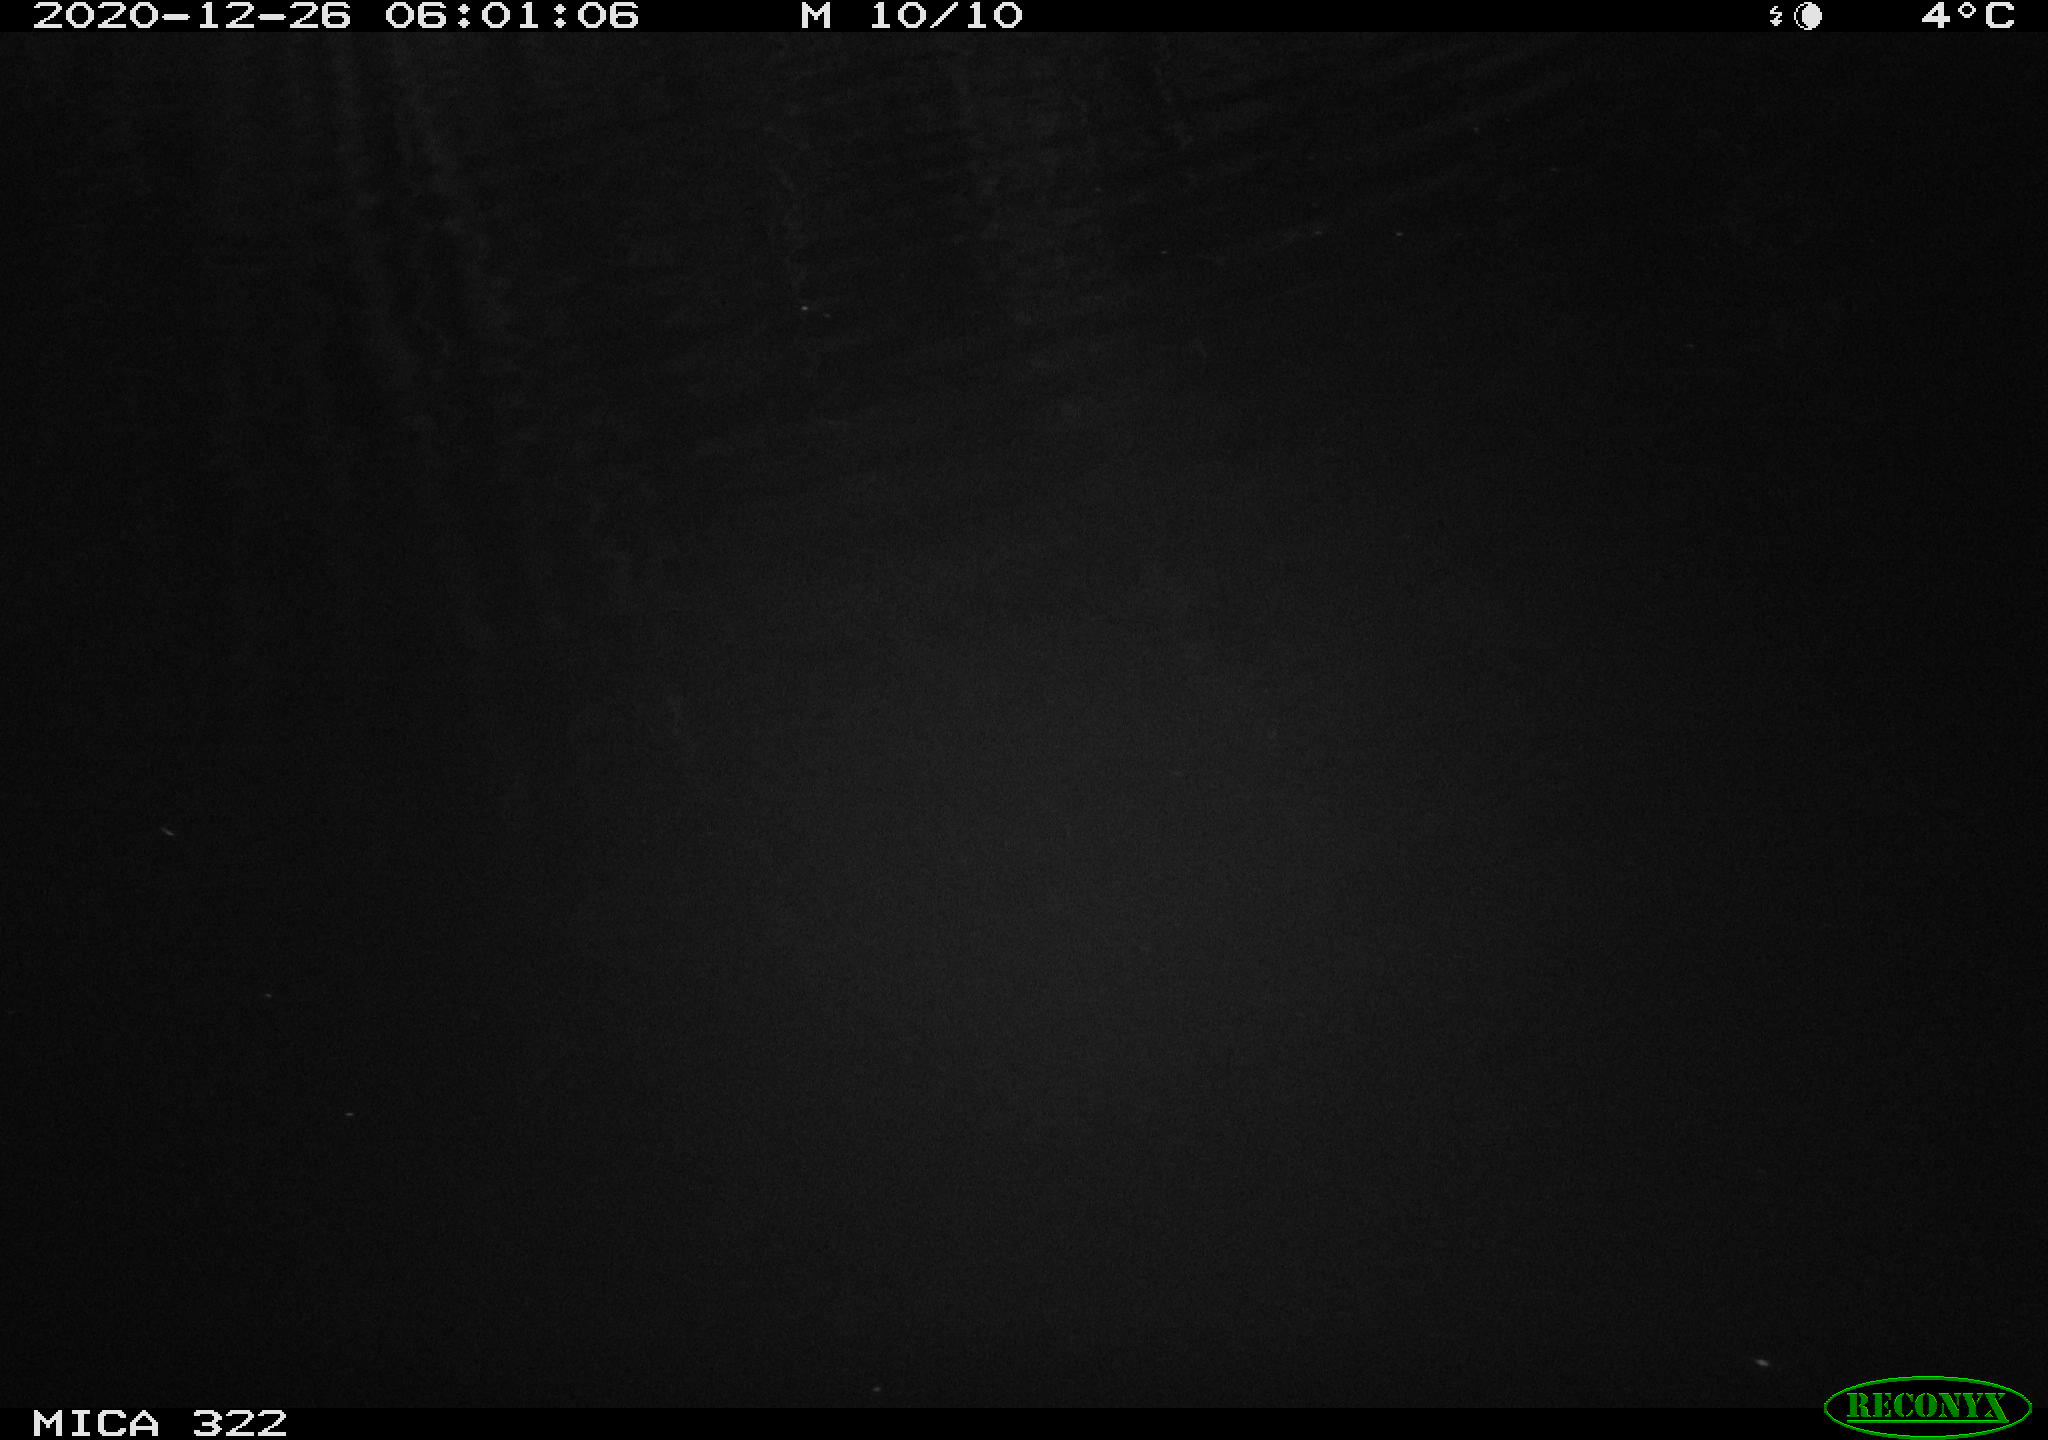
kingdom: Animalia
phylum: Chordata
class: Mammalia
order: Rodentia
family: Cricetidae
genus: Ondatra
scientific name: Ondatra zibethicus
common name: Muskrat
